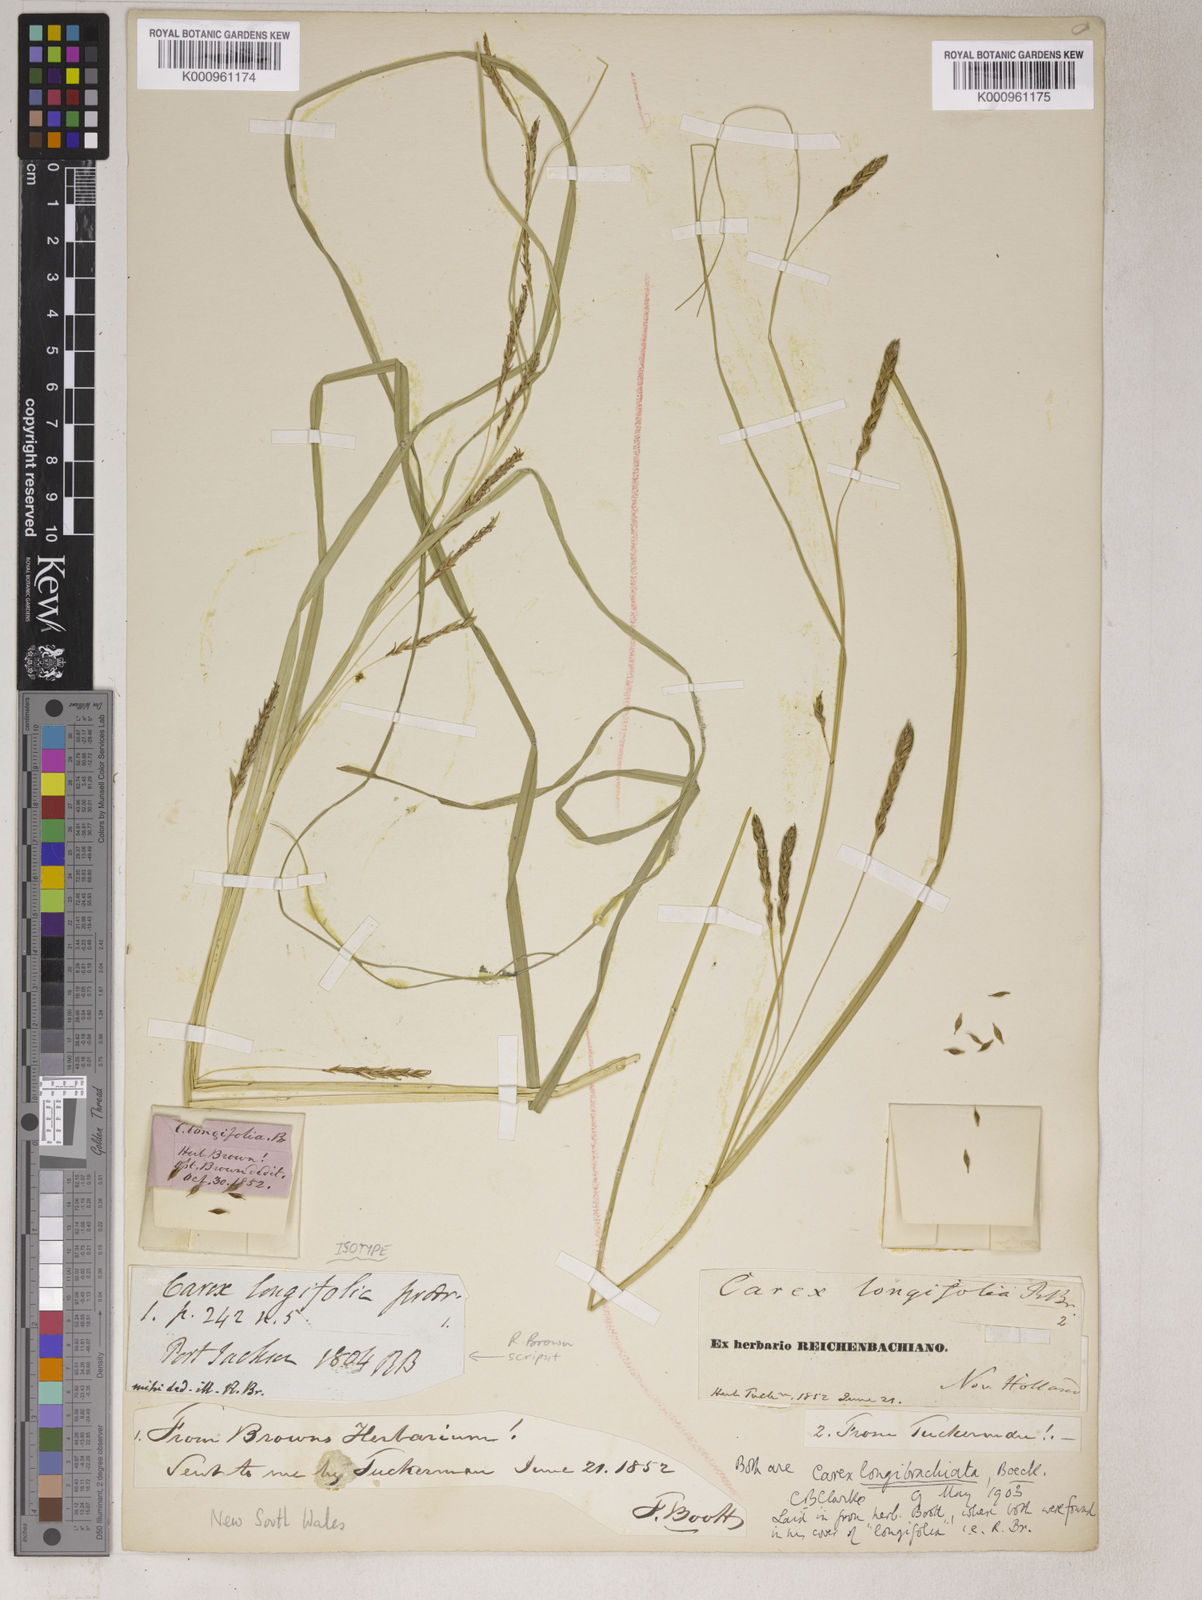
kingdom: Plantae
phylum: Tracheophyta
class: Liliopsida
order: Poales
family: Cyperaceae
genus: Carex
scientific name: Carex
